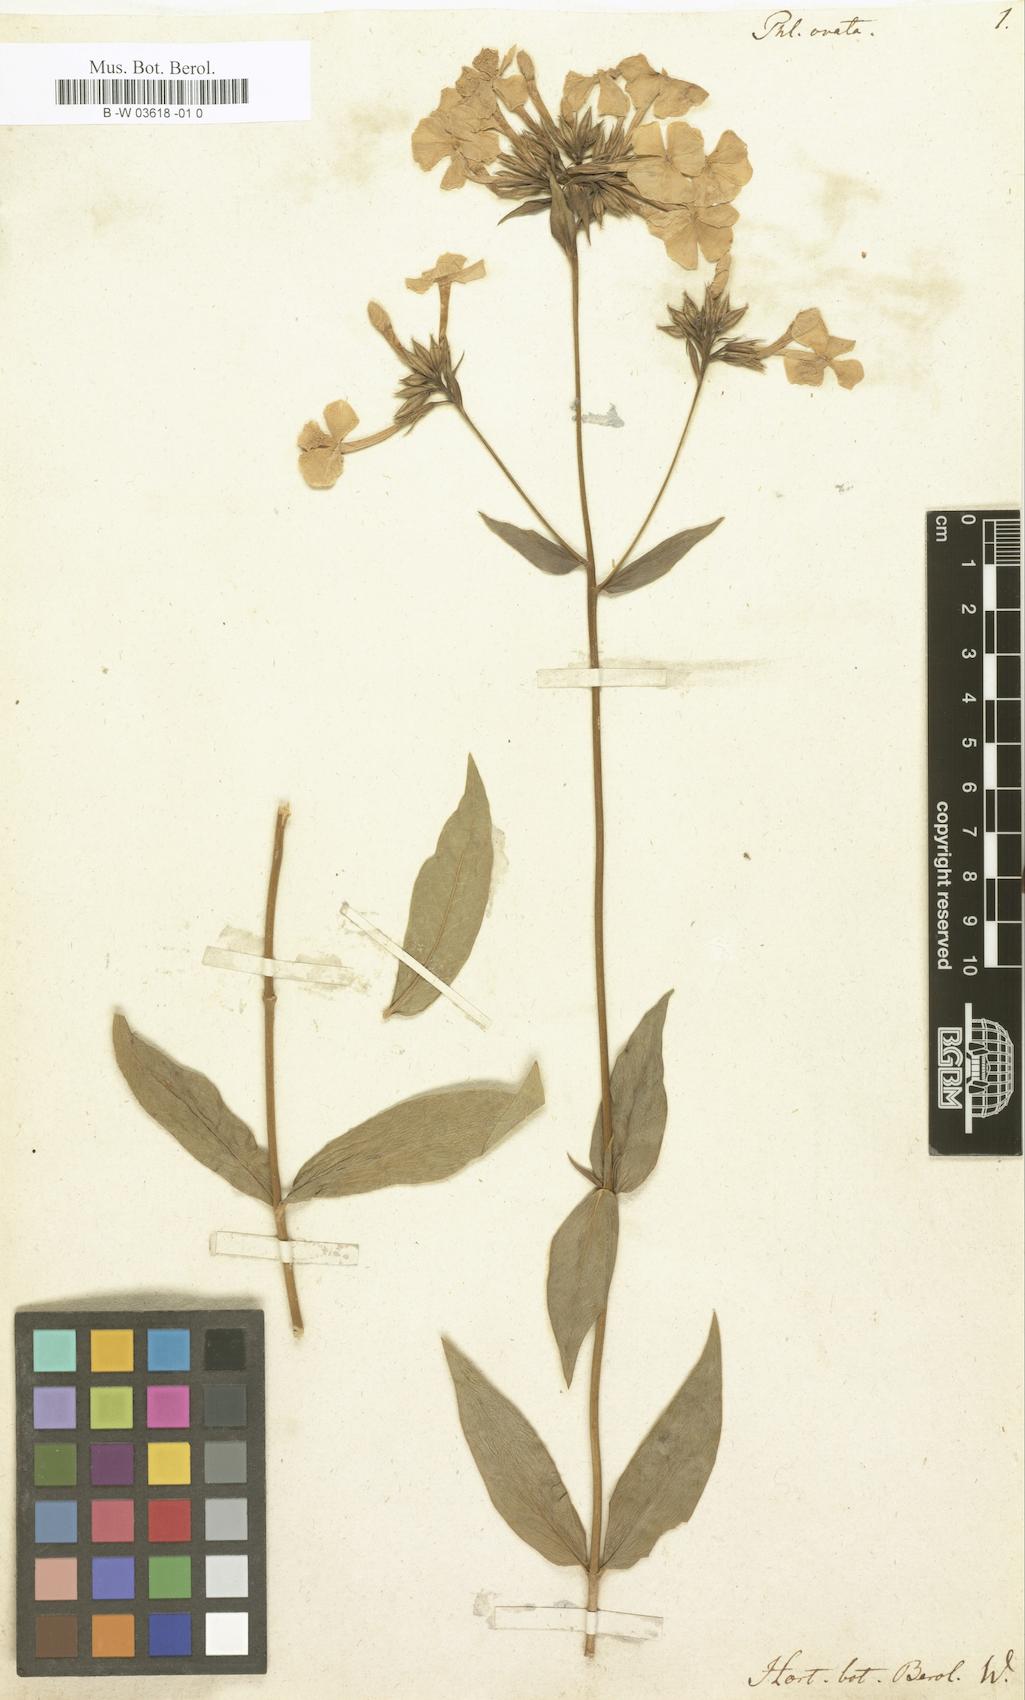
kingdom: Plantae
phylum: Tracheophyta
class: Magnoliopsida
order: Ericales
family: Polemoniaceae
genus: Phlox
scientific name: Phlox ovata
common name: Mountain phlox
